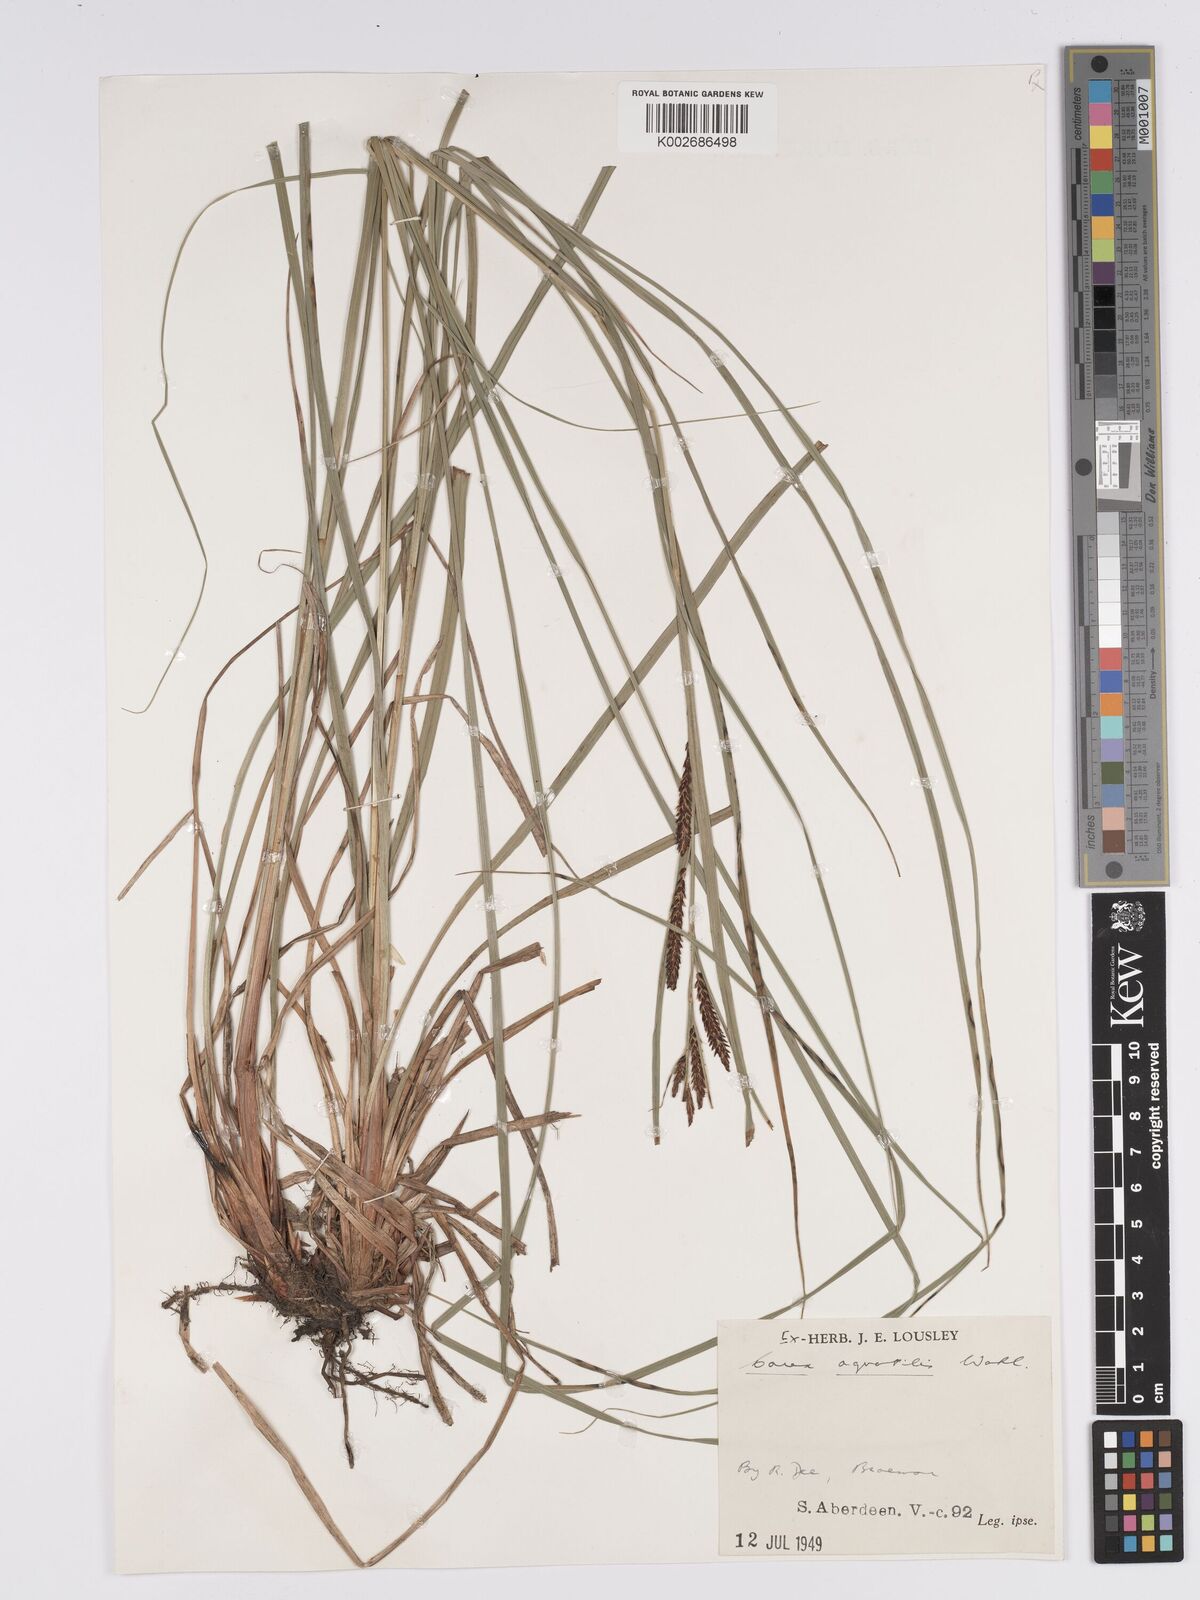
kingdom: Plantae
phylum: Tracheophyta
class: Liliopsida
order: Poales
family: Cyperaceae
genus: Carex
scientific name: Carex aquatilis
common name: Water sedge
